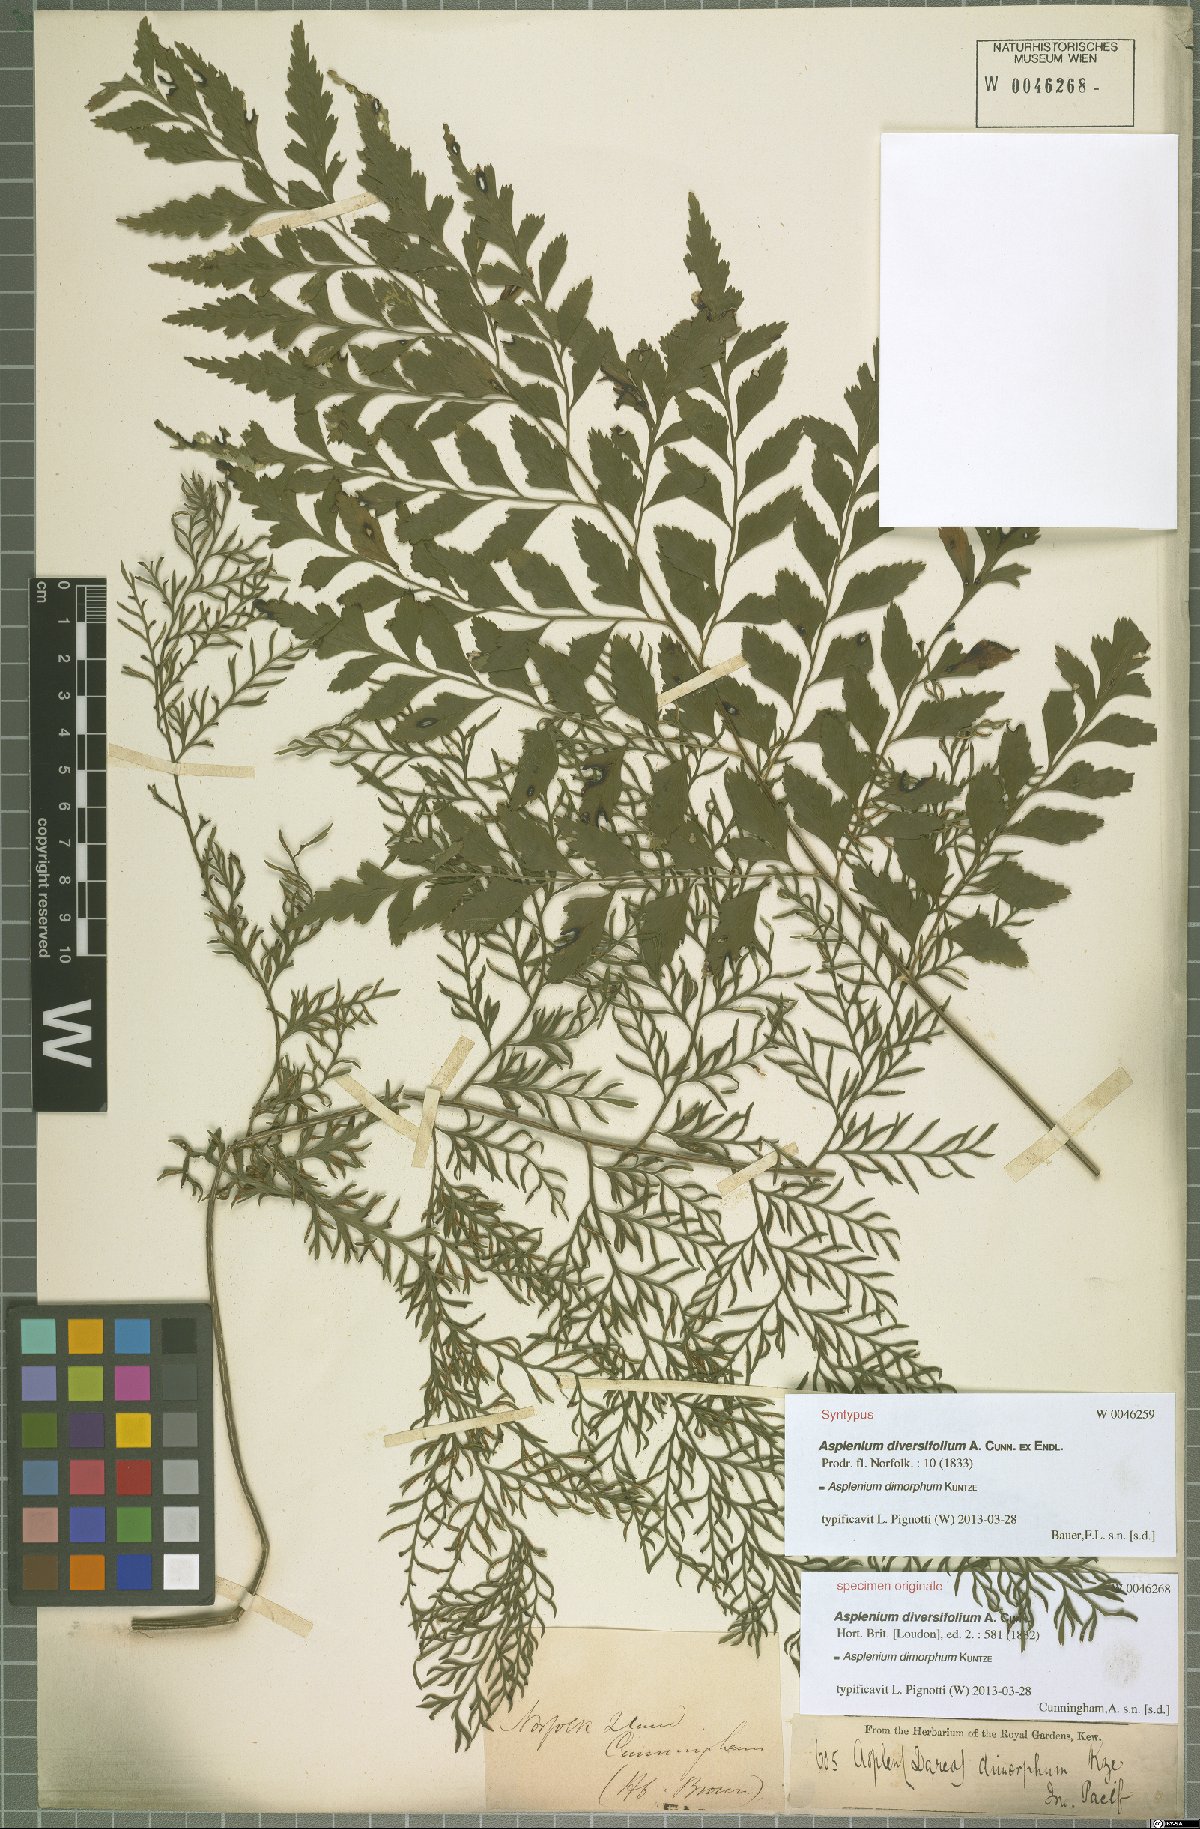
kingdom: Plantae
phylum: Tracheophyta
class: Polypodiopsida
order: Polypodiales
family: Aspleniaceae
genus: Asplenium
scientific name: Asplenium dimorphum
